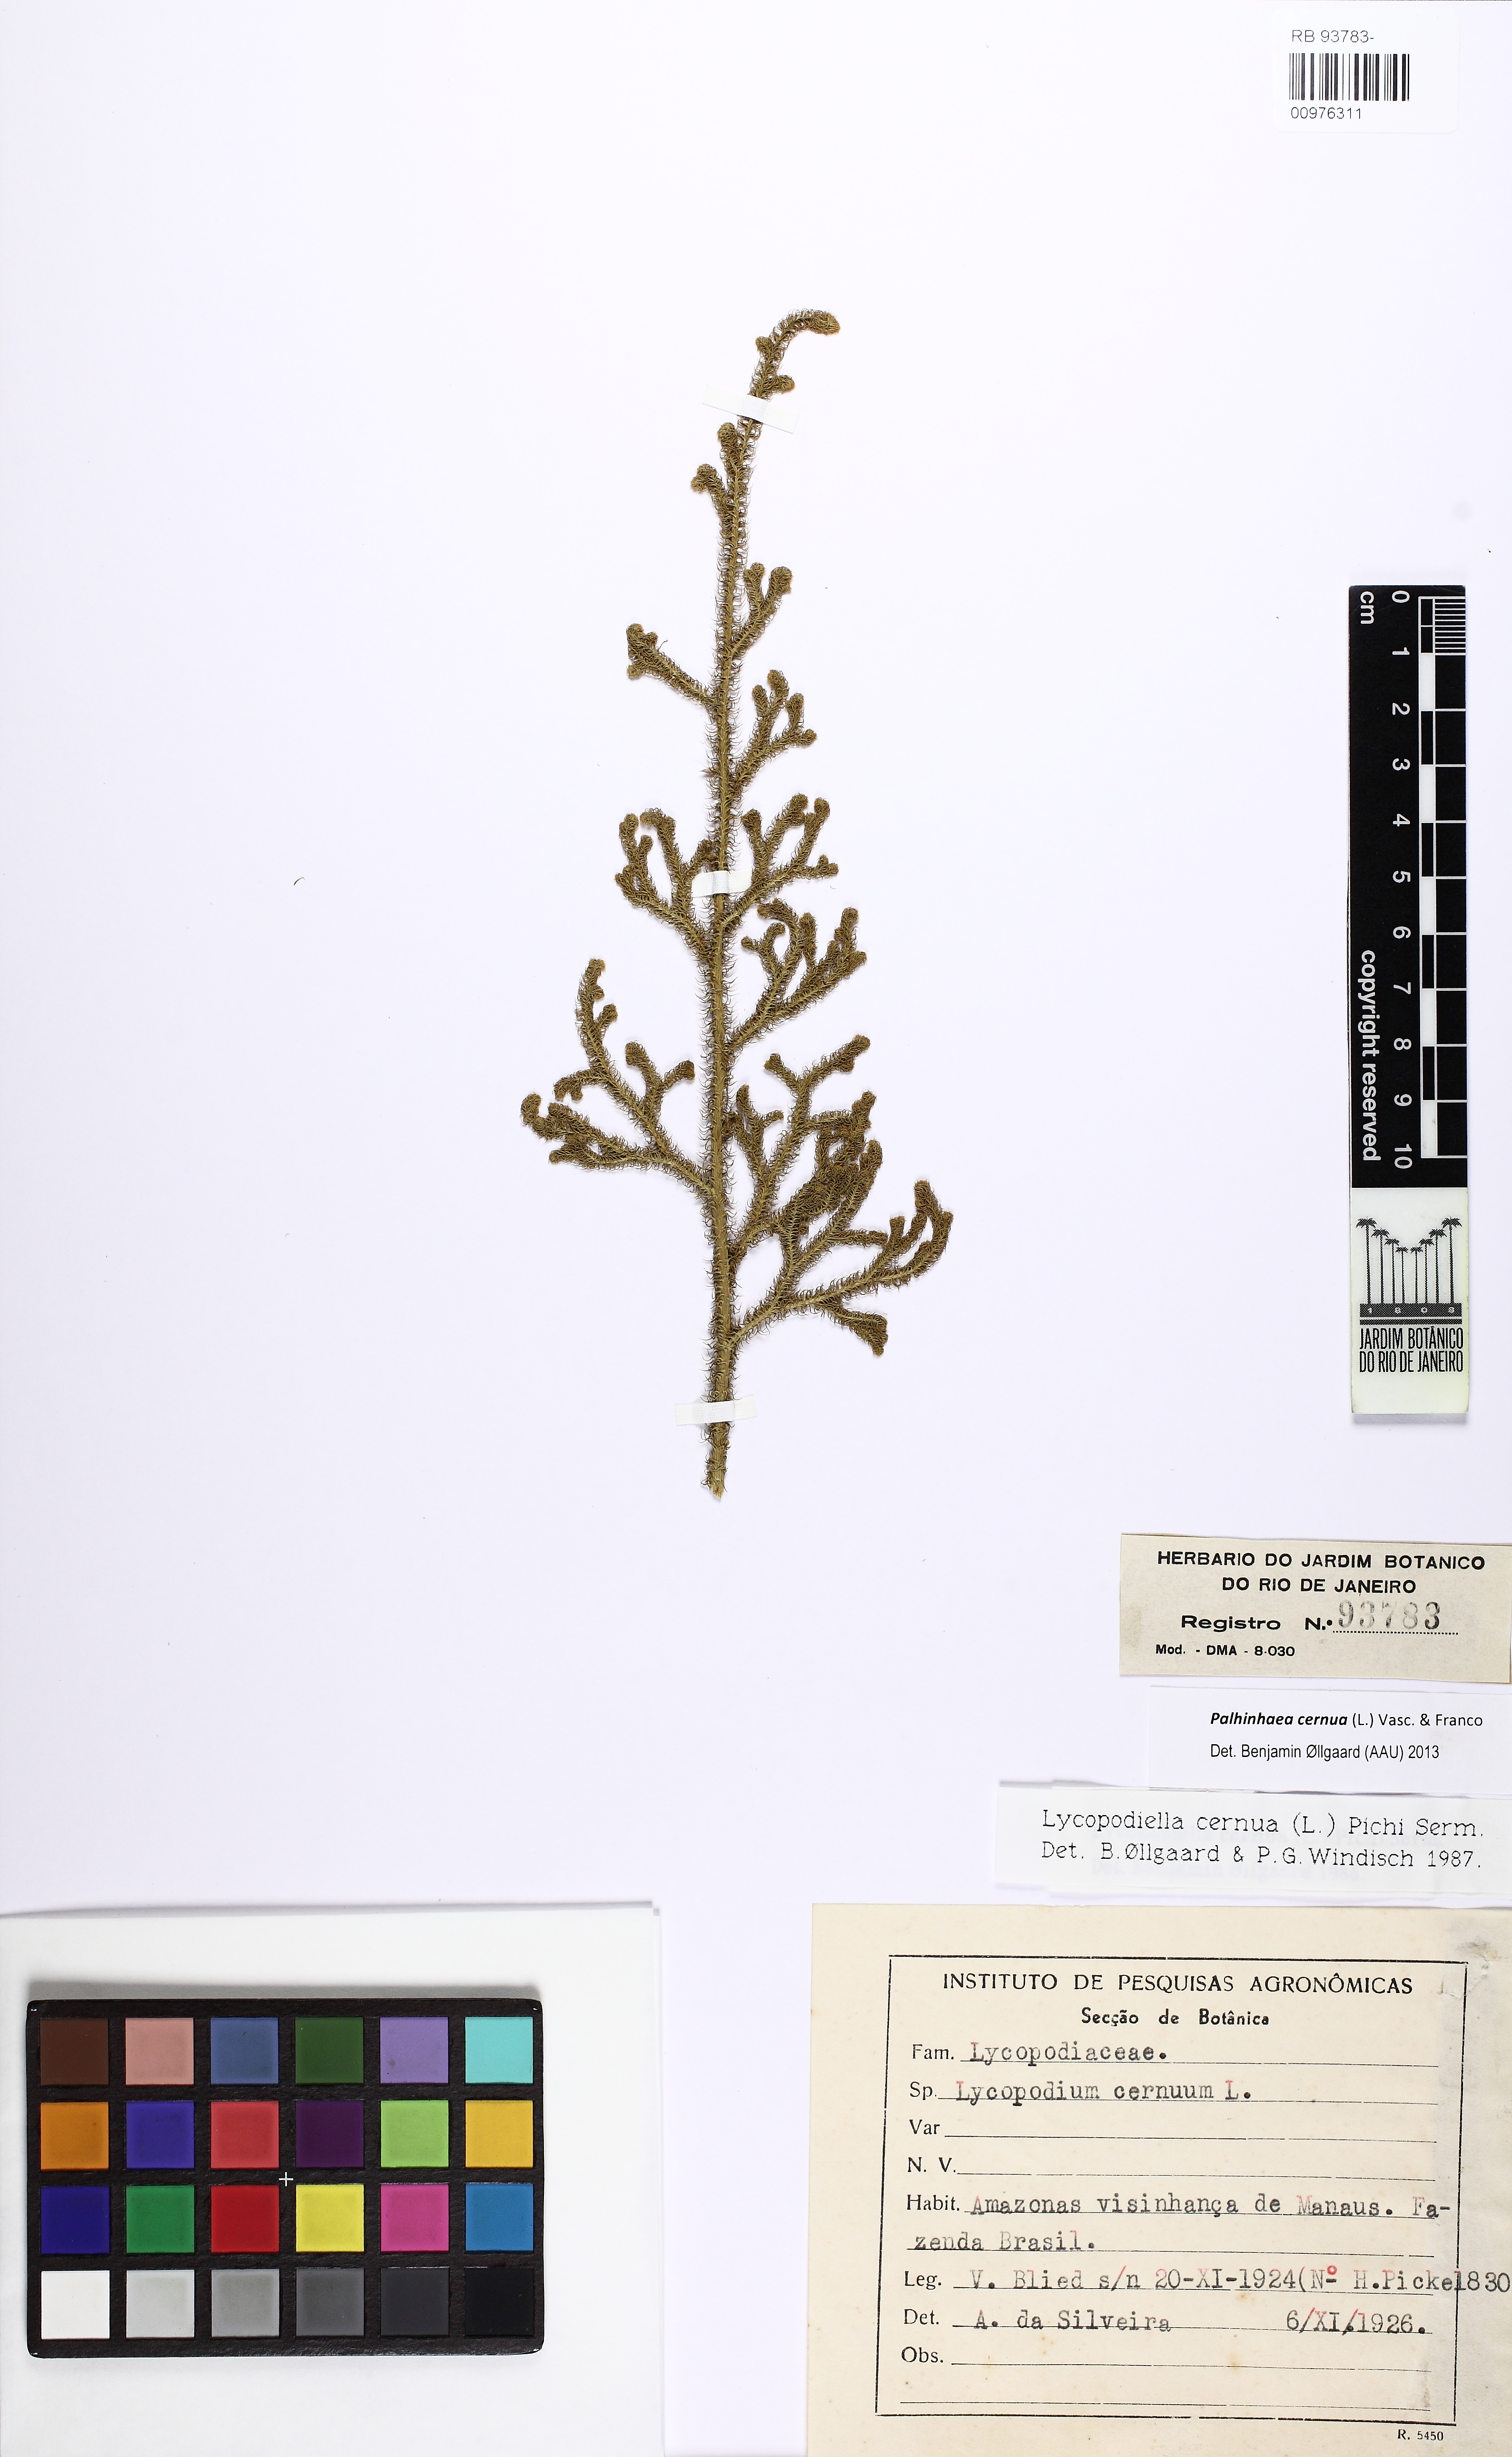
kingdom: Plantae
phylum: Tracheophyta
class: Lycopodiopsida
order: Lycopodiales
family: Lycopodiaceae
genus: Palhinhaea
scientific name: Palhinhaea cernua
